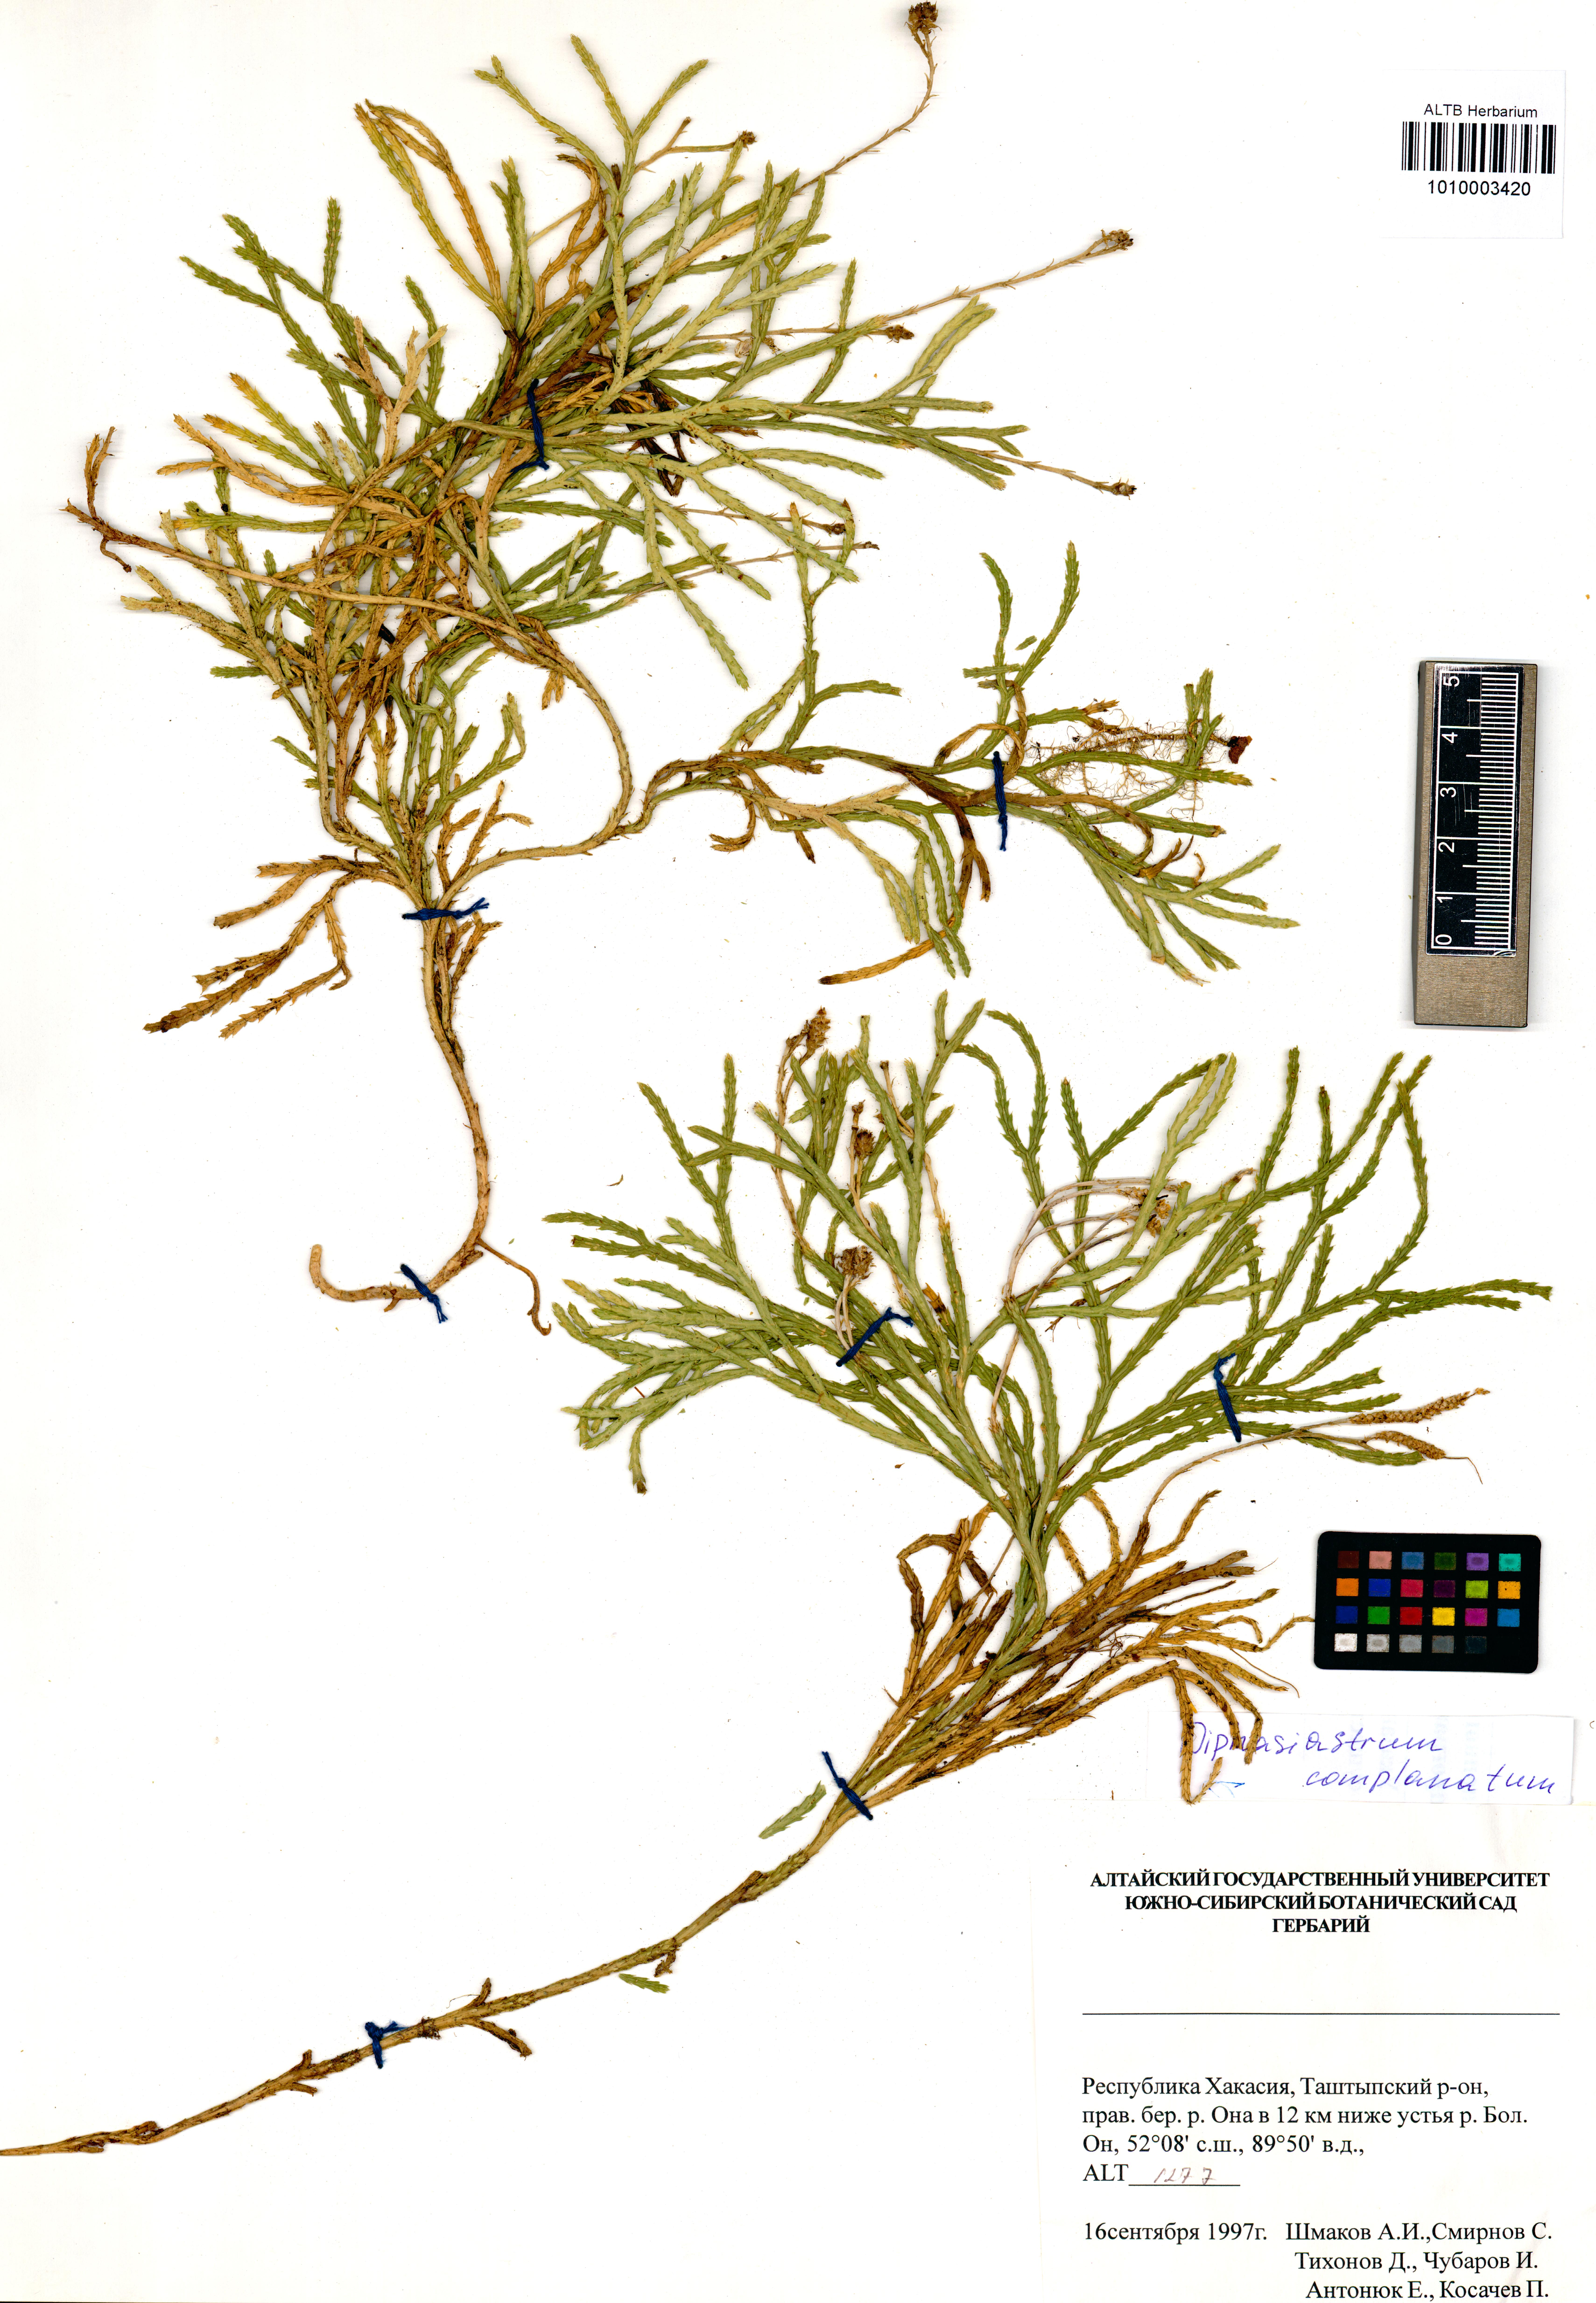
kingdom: Plantae
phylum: Tracheophyta
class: Lycopodiopsida
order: Lycopodiales
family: Lycopodiaceae
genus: Diphasiastrum
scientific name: Diphasiastrum complanatum
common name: Northern running-pine
